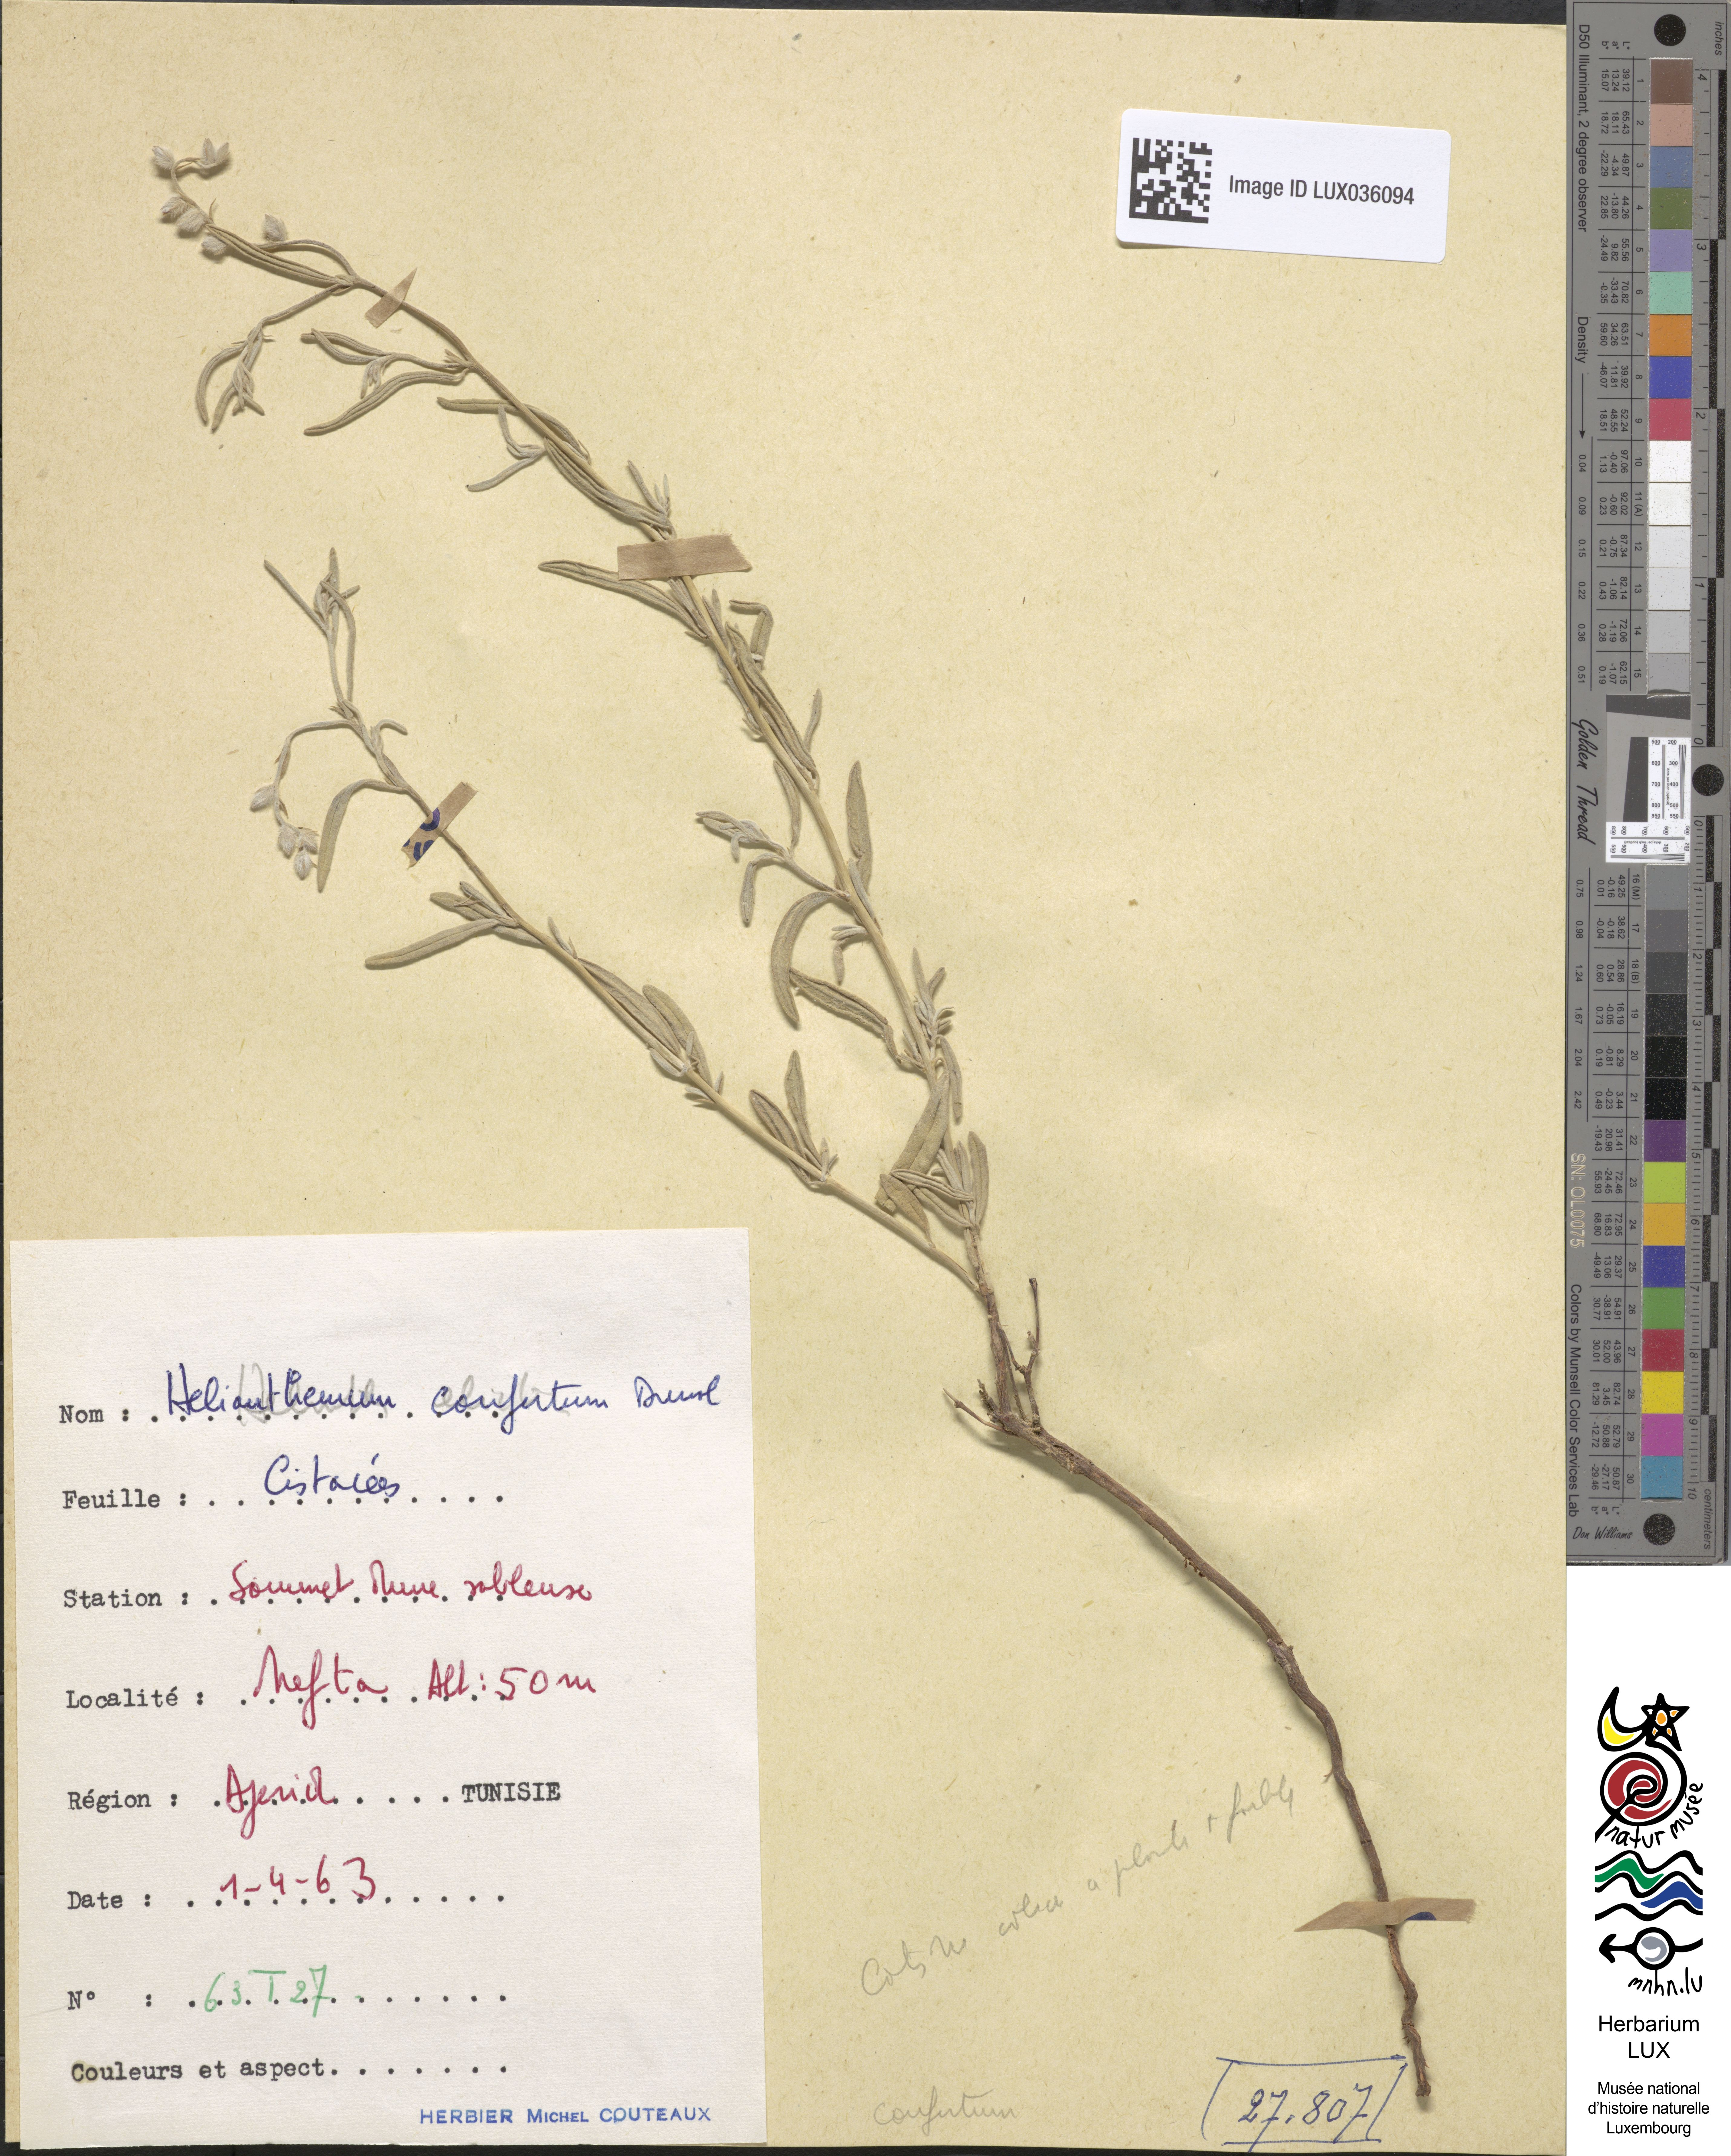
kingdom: Plantae
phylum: Tracheophyta
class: Magnoliopsida
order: Malvales
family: Cistaceae
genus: Helianthemum
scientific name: Helianthemum confertum
